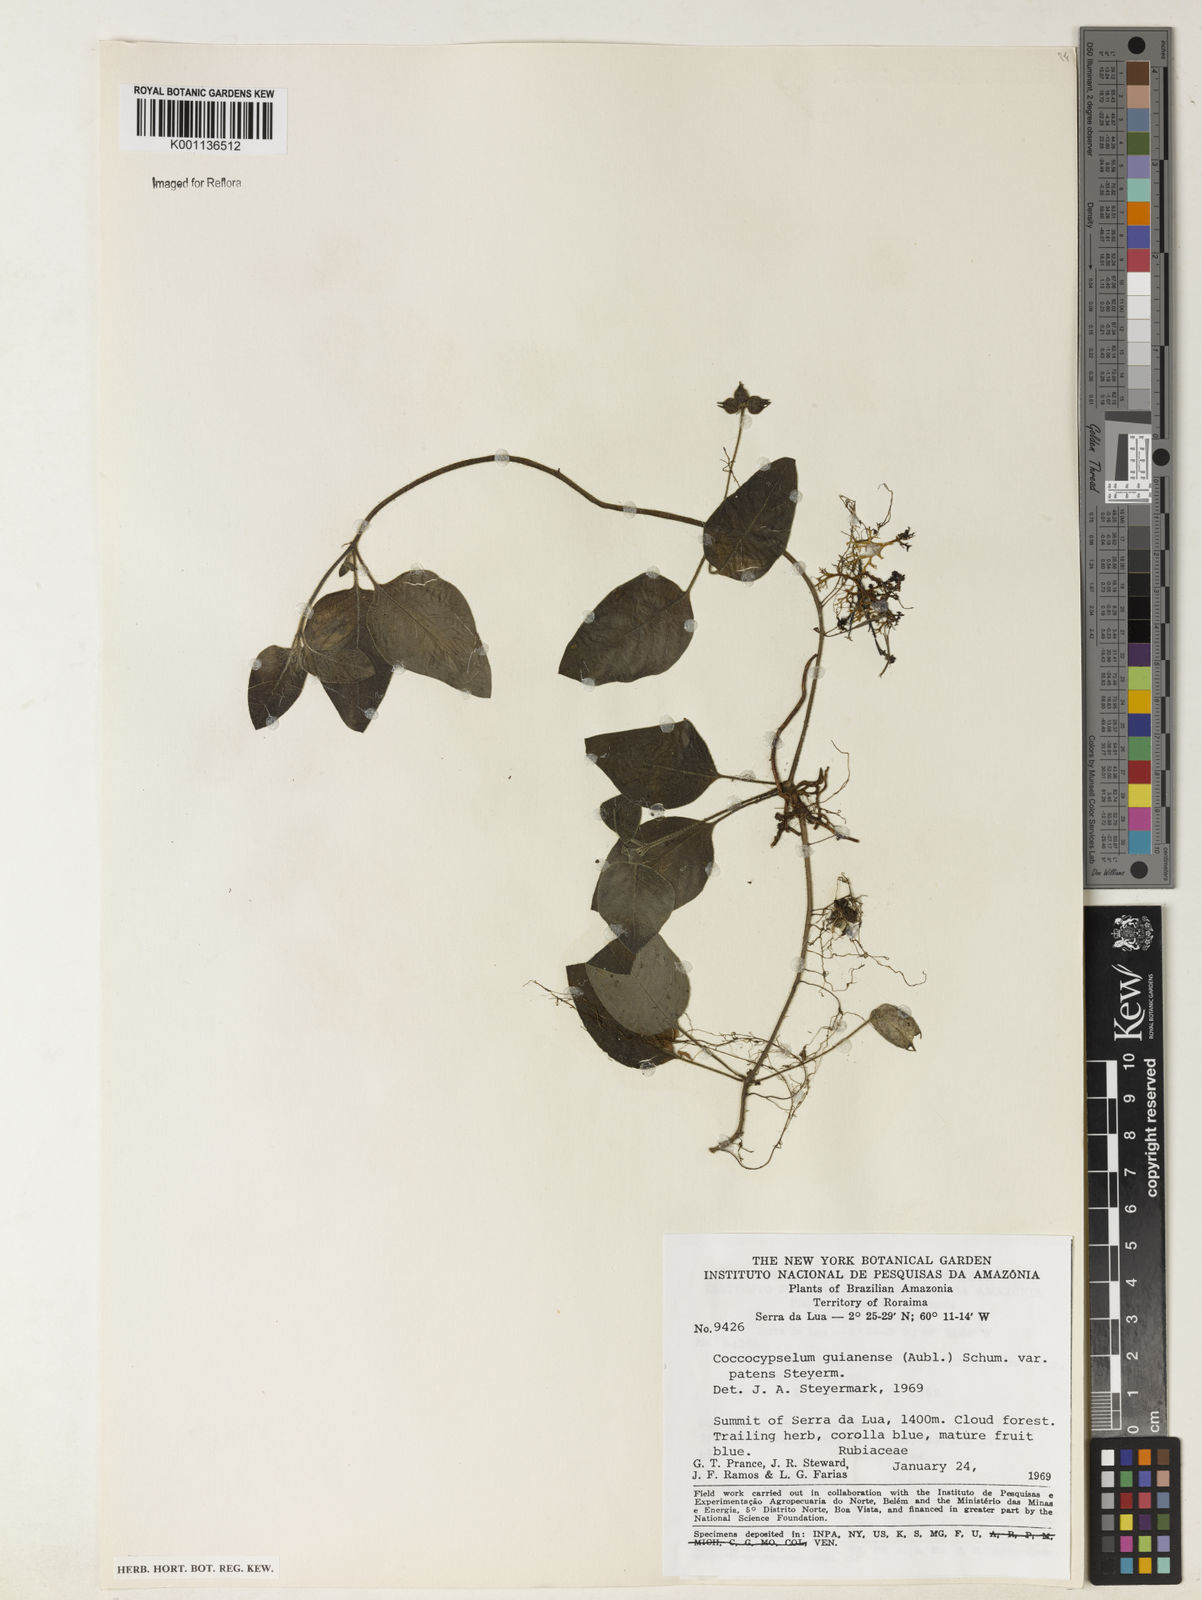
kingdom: Plantae
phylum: Tracheophyta
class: Magnoliopsida
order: Gentianales
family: Rubiaceae
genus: Coccocypselum
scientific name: Coccocypselum guianense
